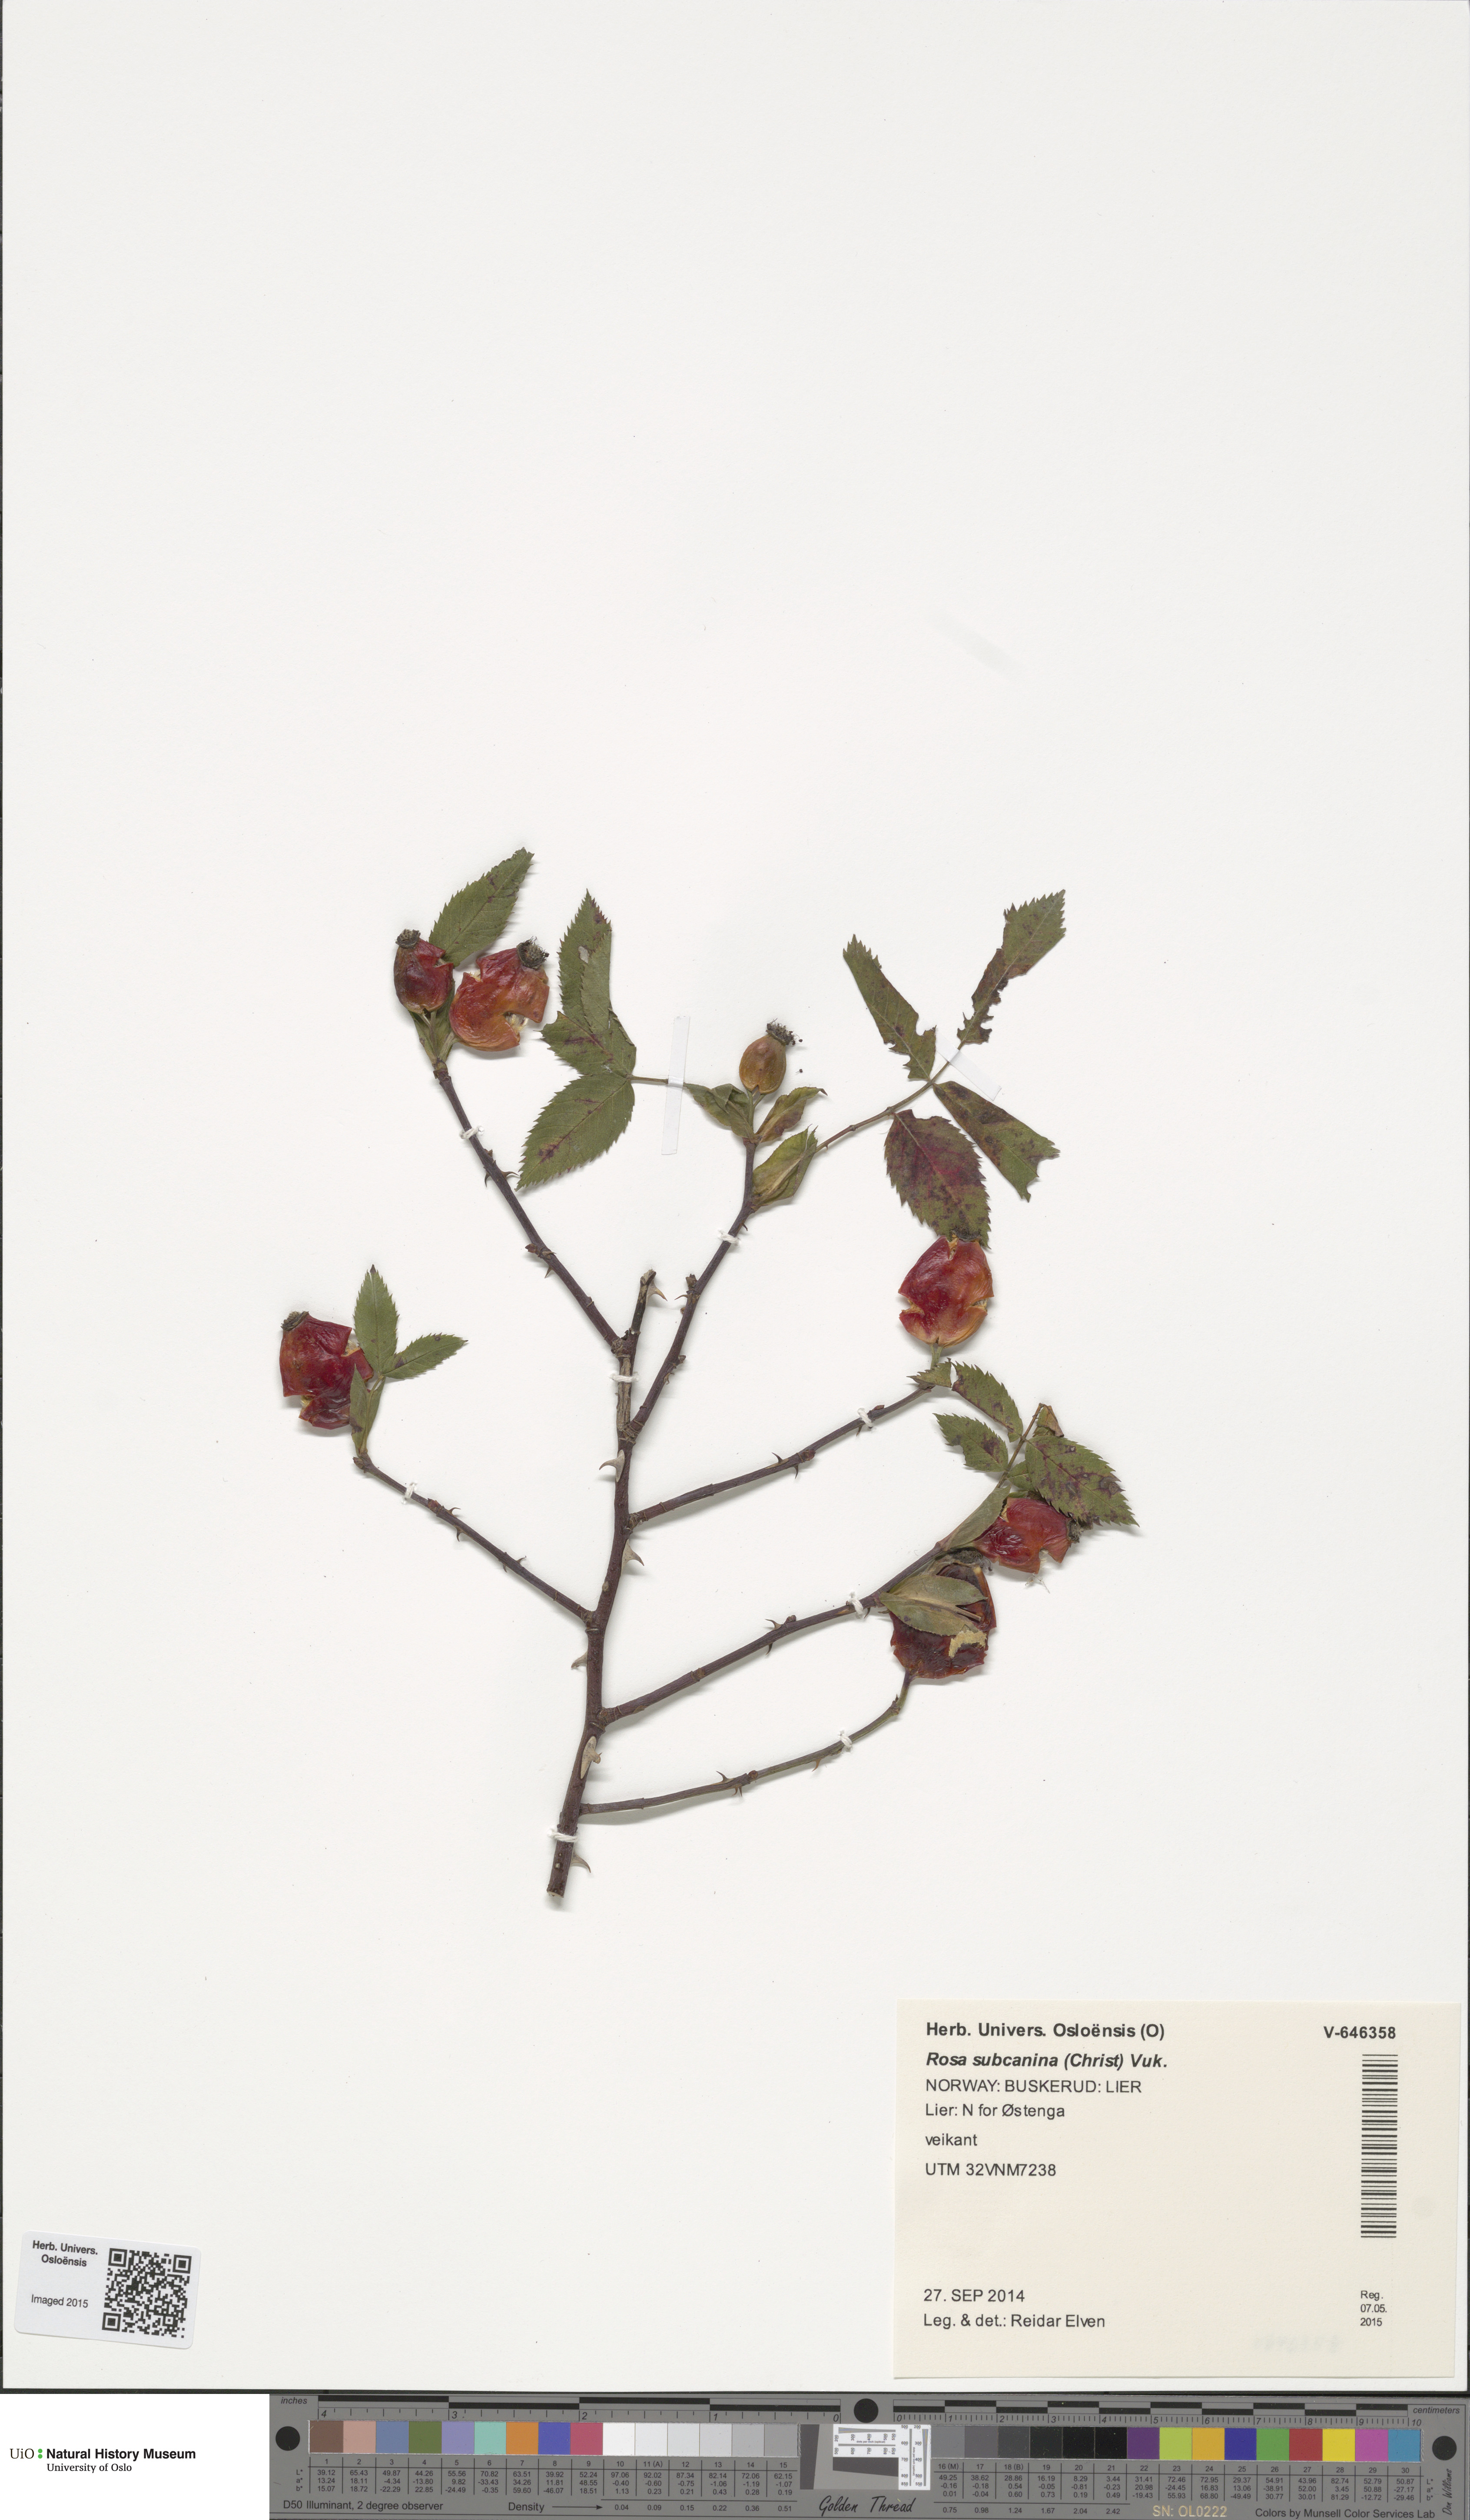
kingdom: Plantae
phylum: Tracheophyta
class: Magnoliopsida
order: Rosales
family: Rosaceae
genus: Rosa
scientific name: Rosa subcanina
